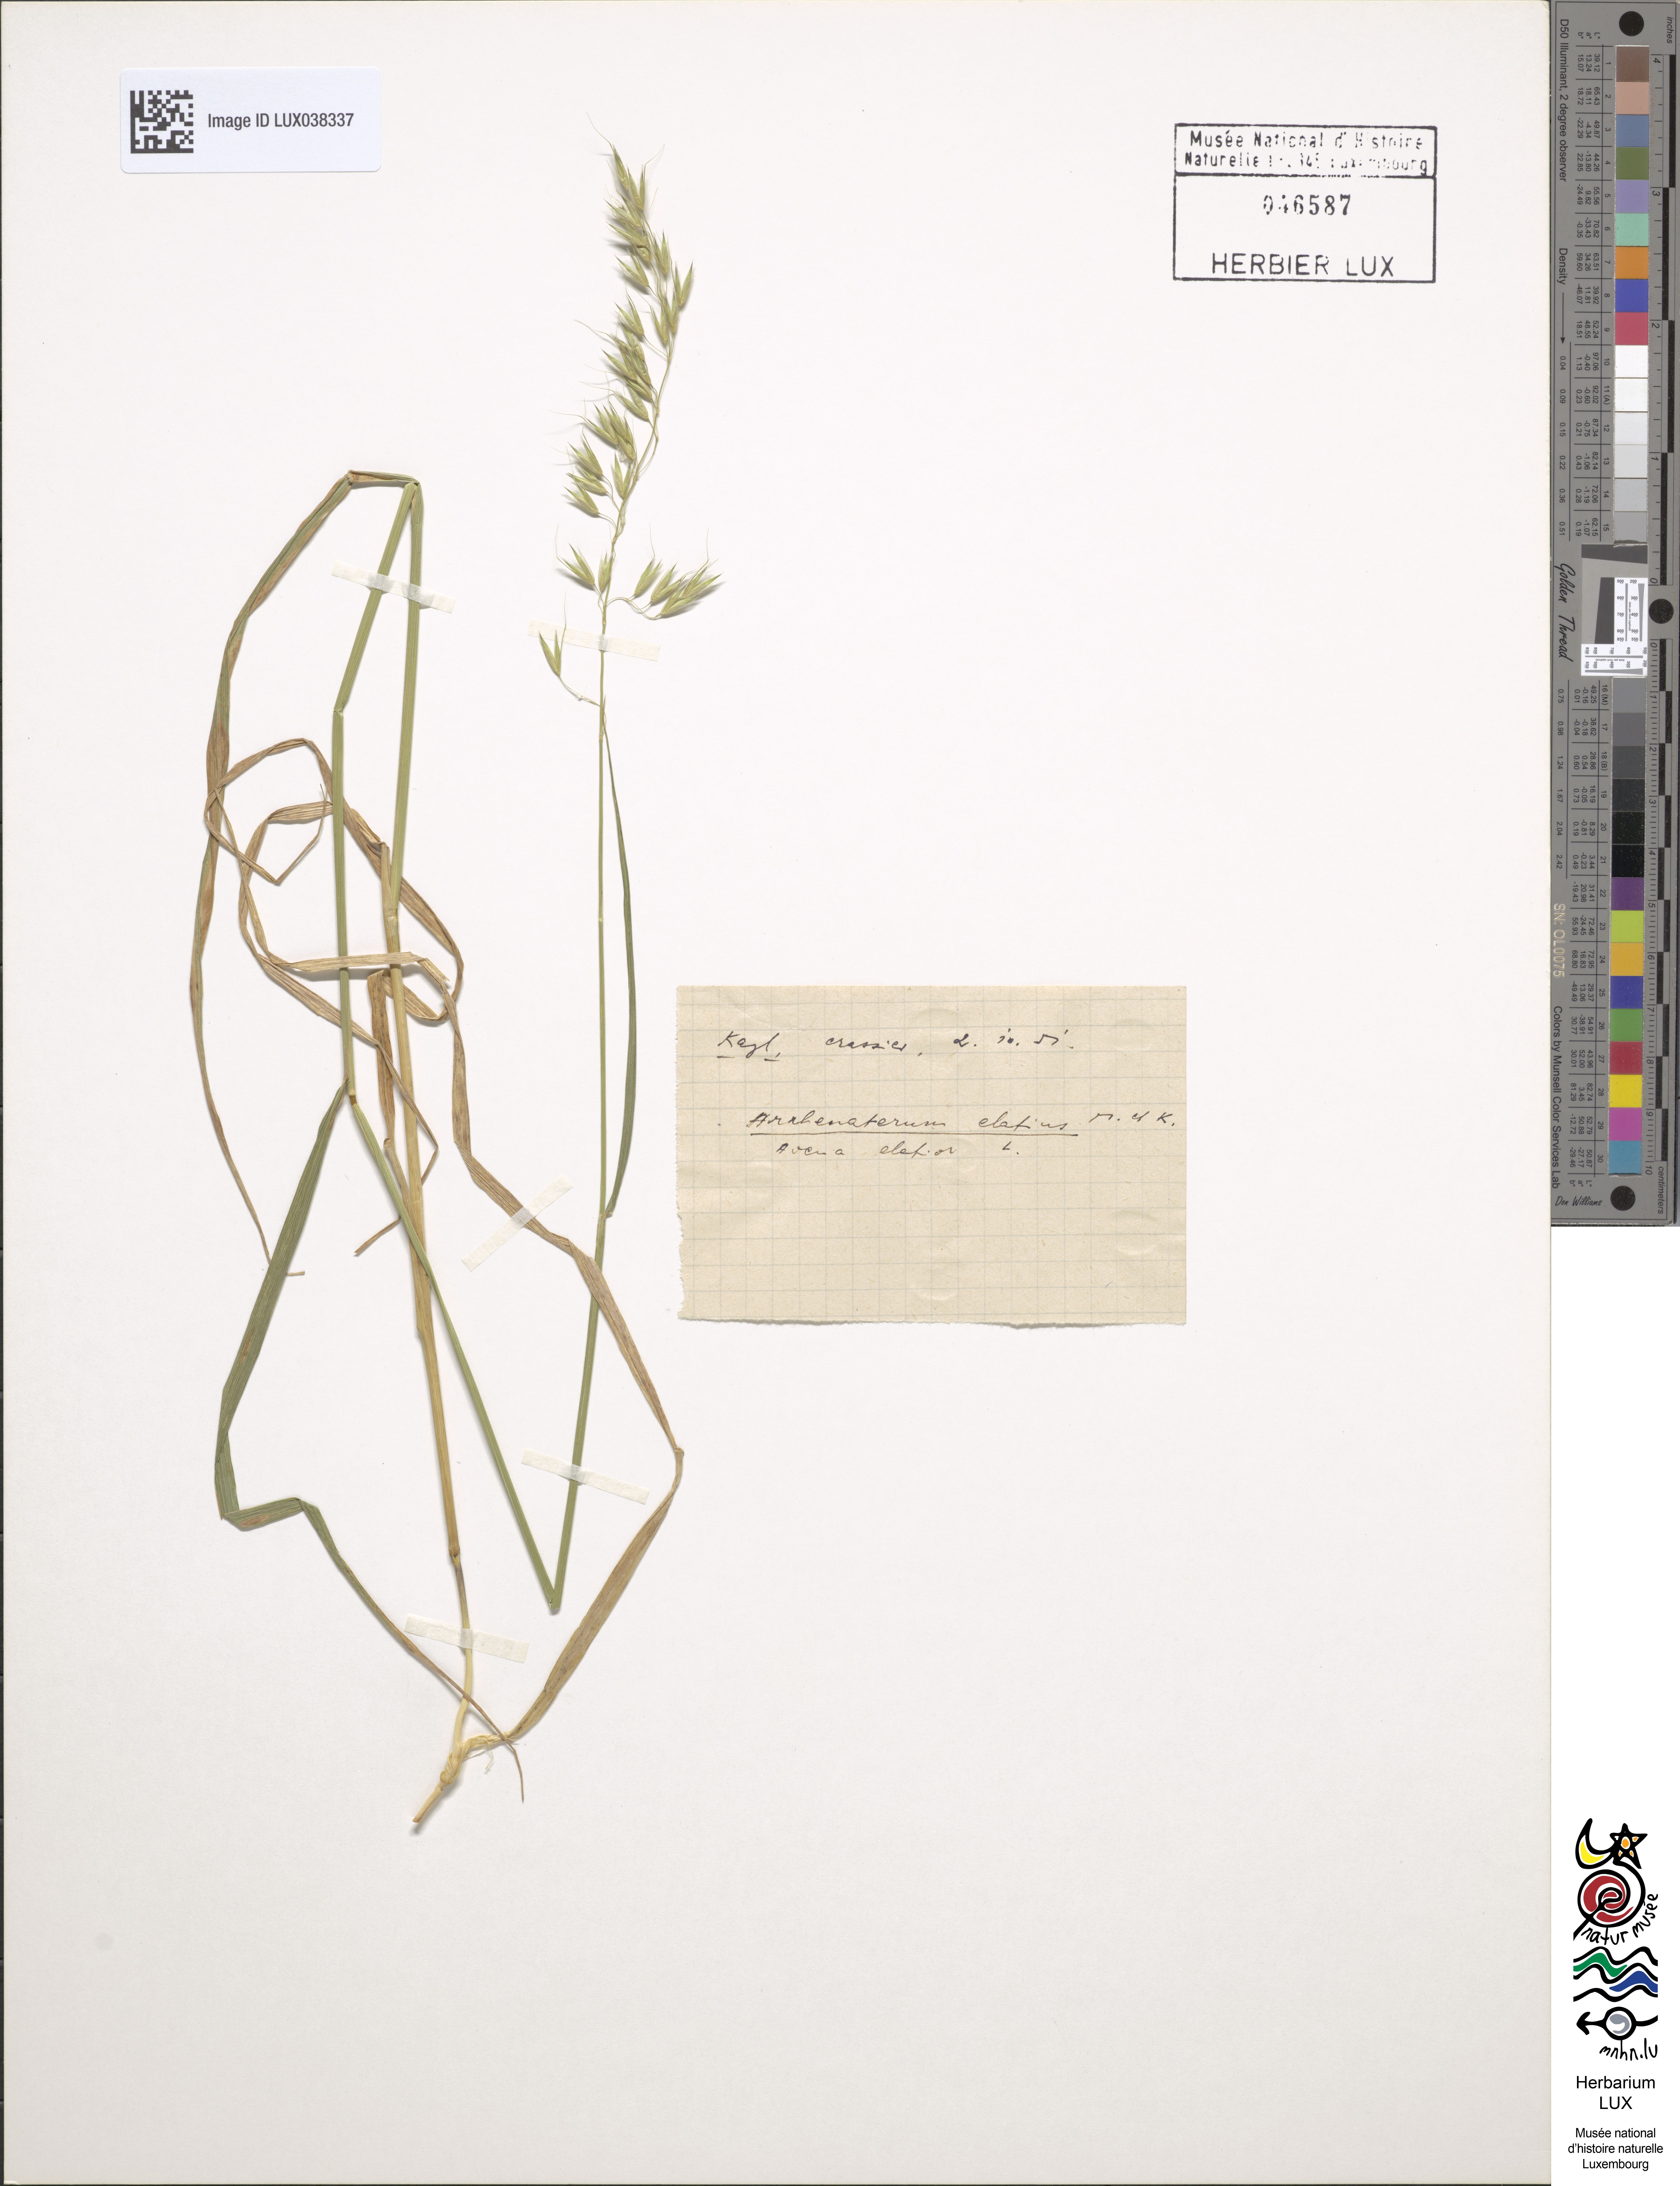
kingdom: Plantae
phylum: Tracheophyta
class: Liliopsida
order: Poales
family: Poaceae
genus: Arrhenatherum
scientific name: Arrhenatherum elatius
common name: Tall oatgrass
